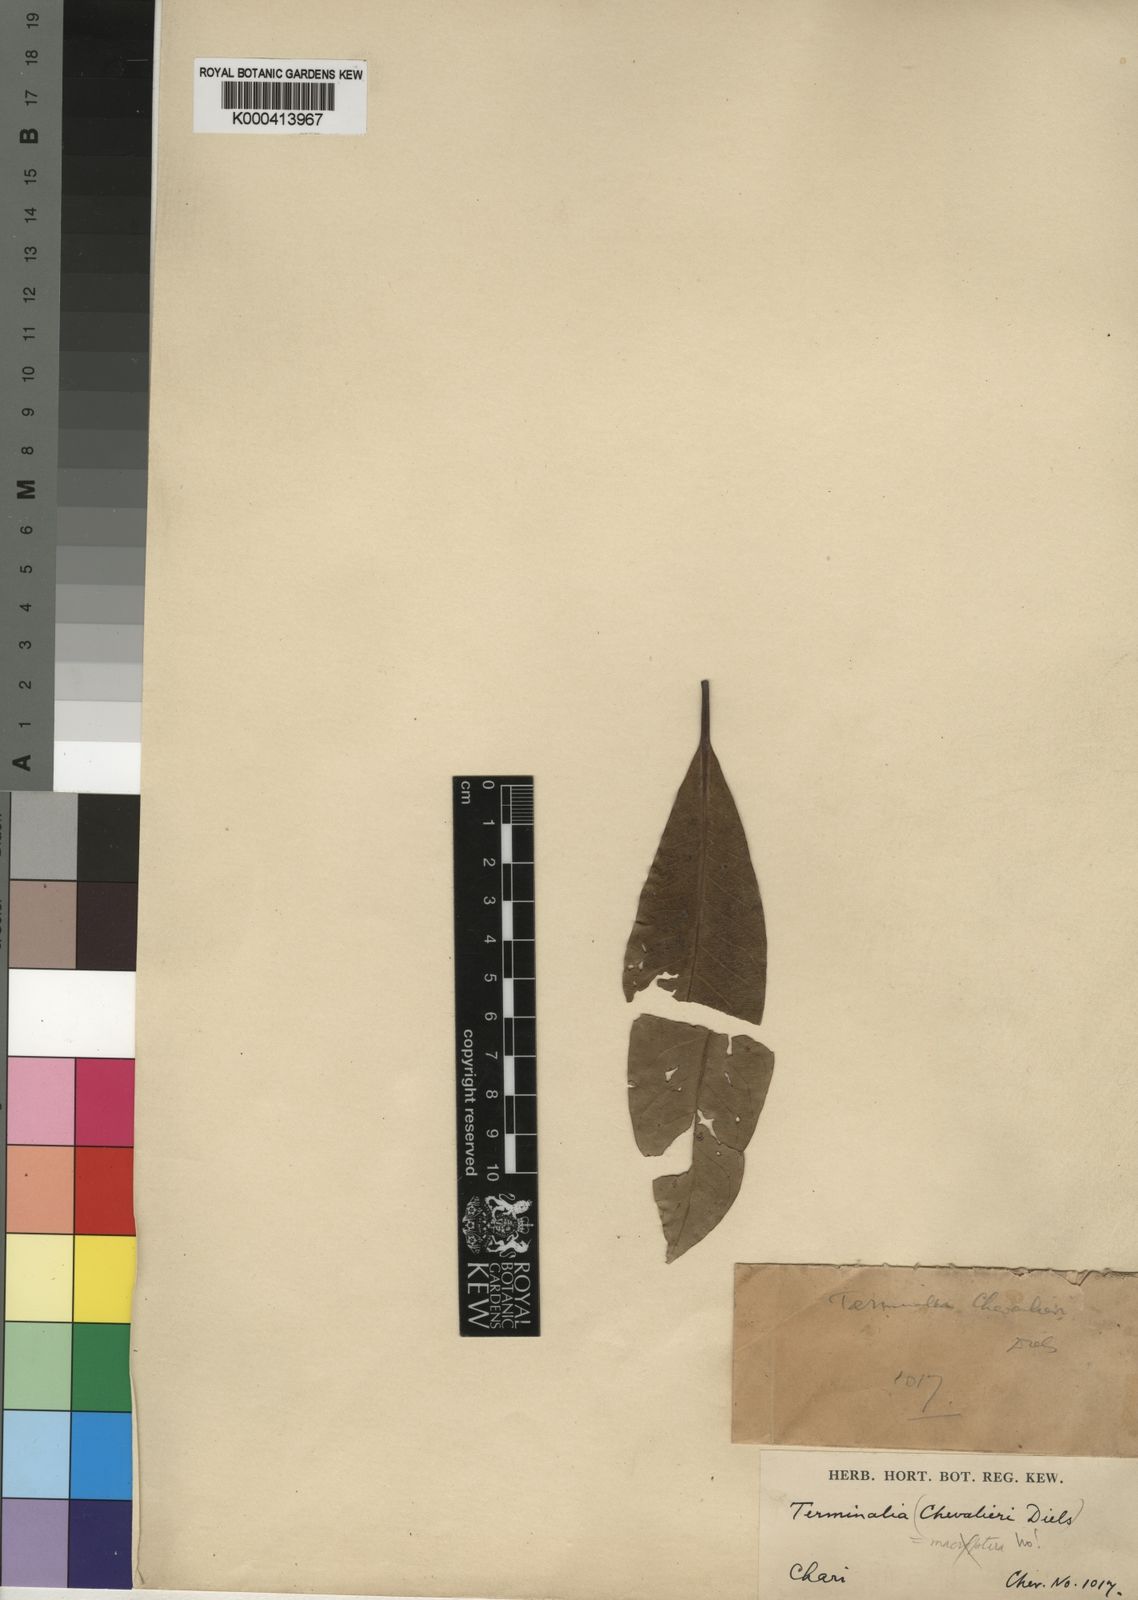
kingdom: Plantae
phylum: Tracheophyta
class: Magnoliopsida
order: Myrtales
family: Combretaceae
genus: Terminalia
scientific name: Terminalia macroptera
